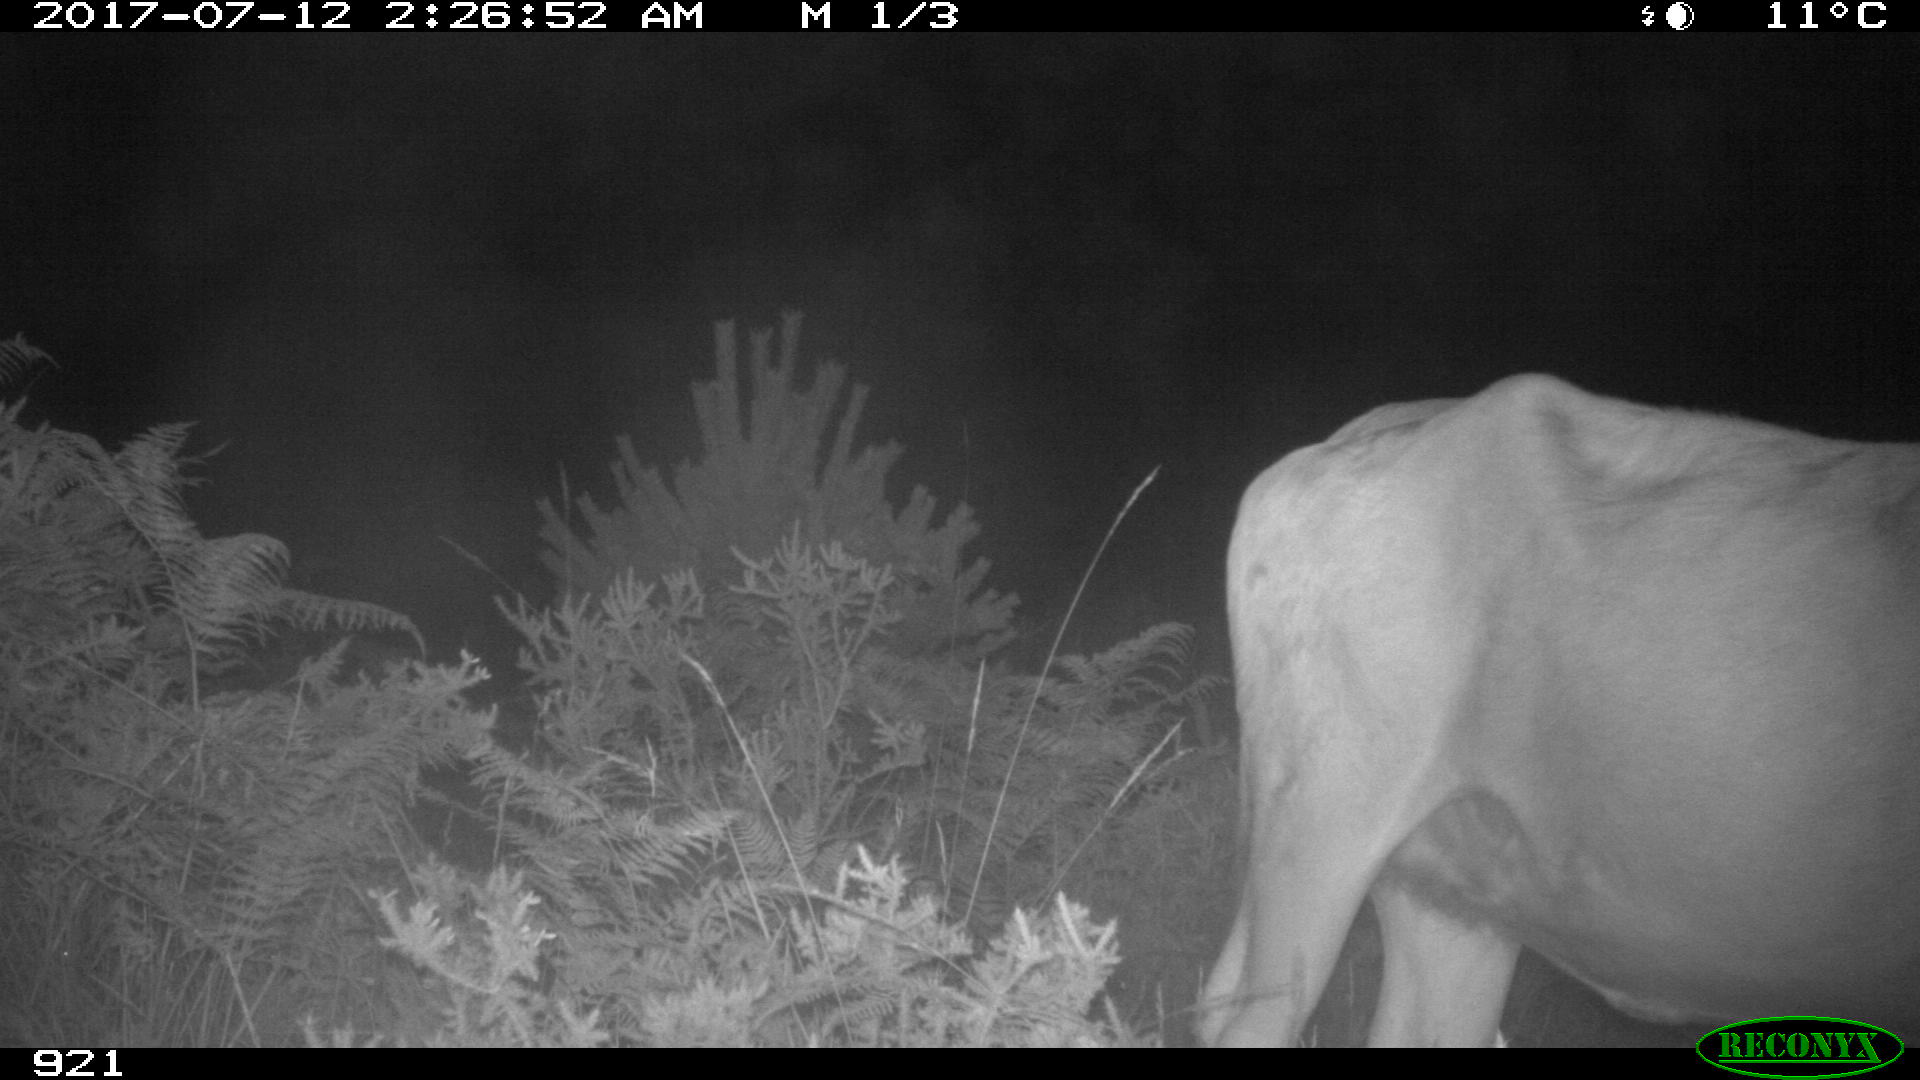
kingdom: Animalia
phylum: Chordata
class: Mammalia
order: Artiodactyla
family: Bovidae
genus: Bos
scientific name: Bos taurus
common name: Domesticated cattle
